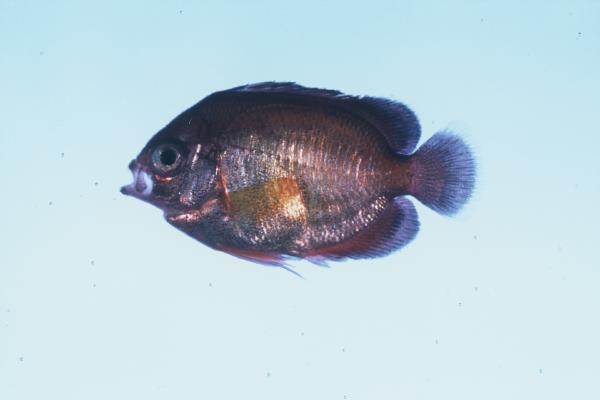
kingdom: Animalia
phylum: Chordata
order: Perciformes
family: Pomacanthidae
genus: Centropyge
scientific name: Centropyge multispinis
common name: Many-spined angelfish
